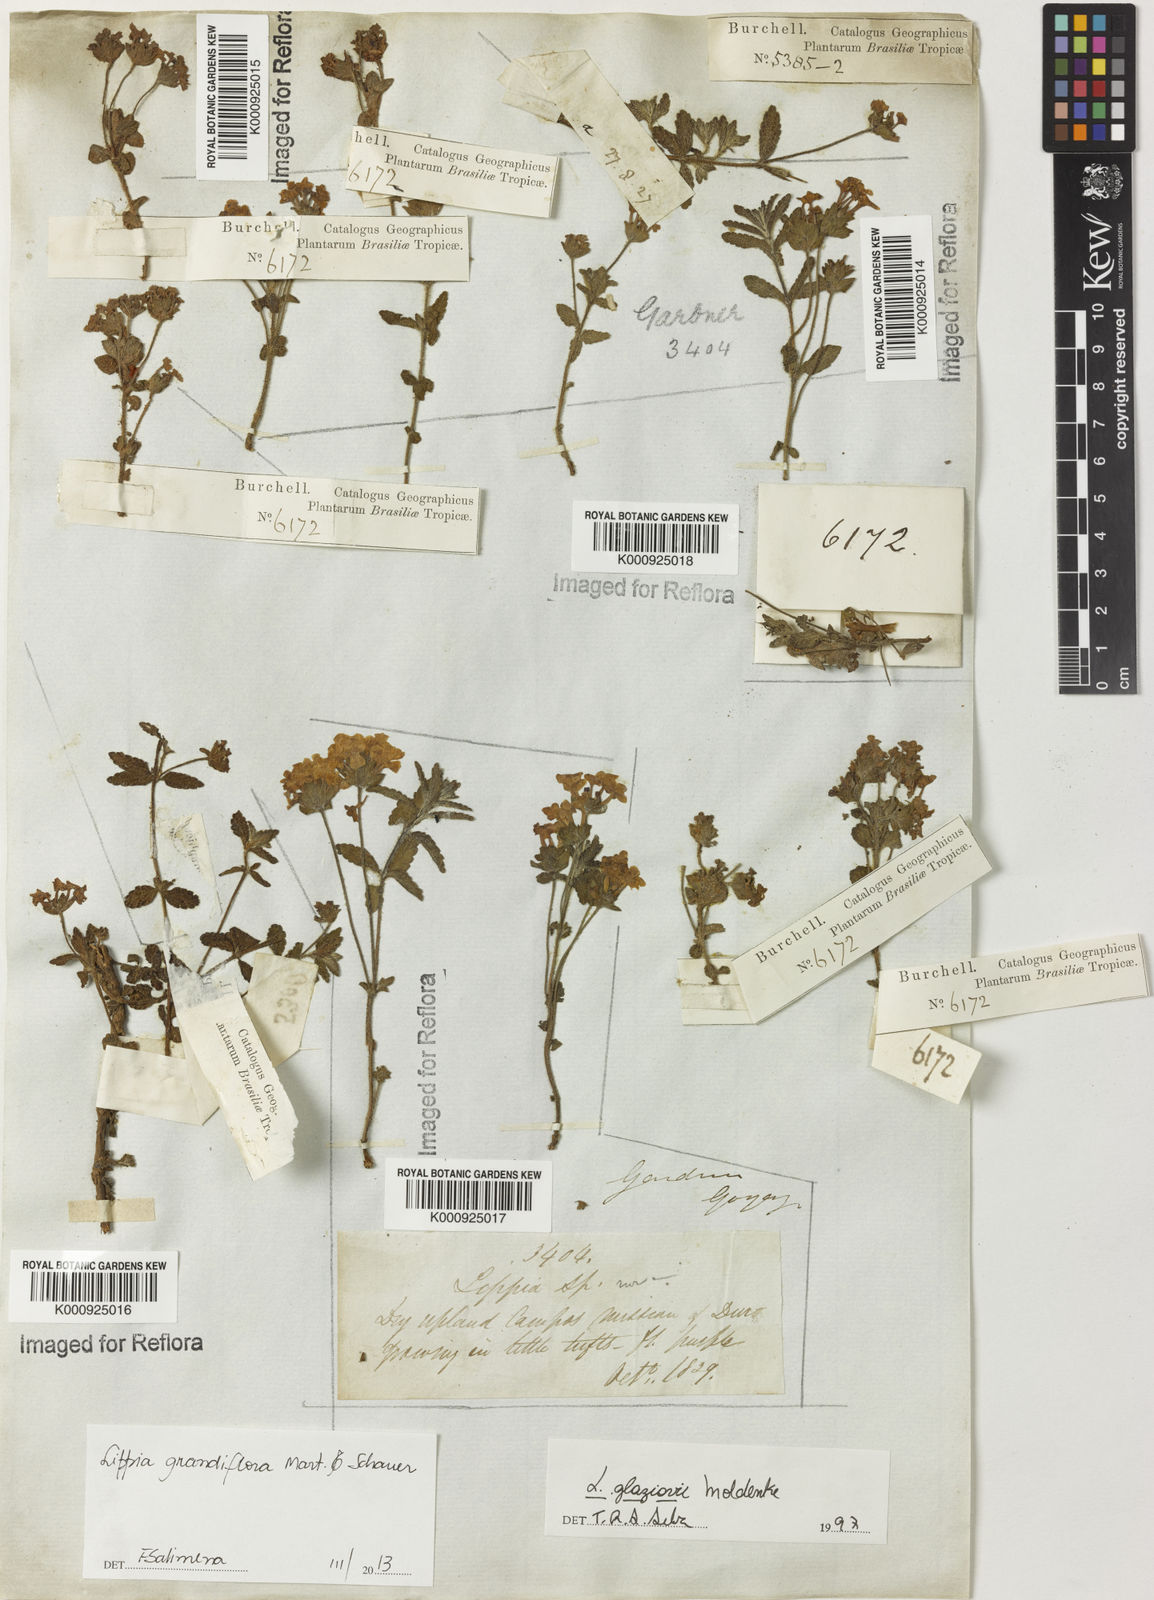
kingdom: Plantae
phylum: Tracheophyta
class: Magnoliopsida
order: Lamiales
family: Verbenaceae
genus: Lippia
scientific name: Lippia grandiflora
